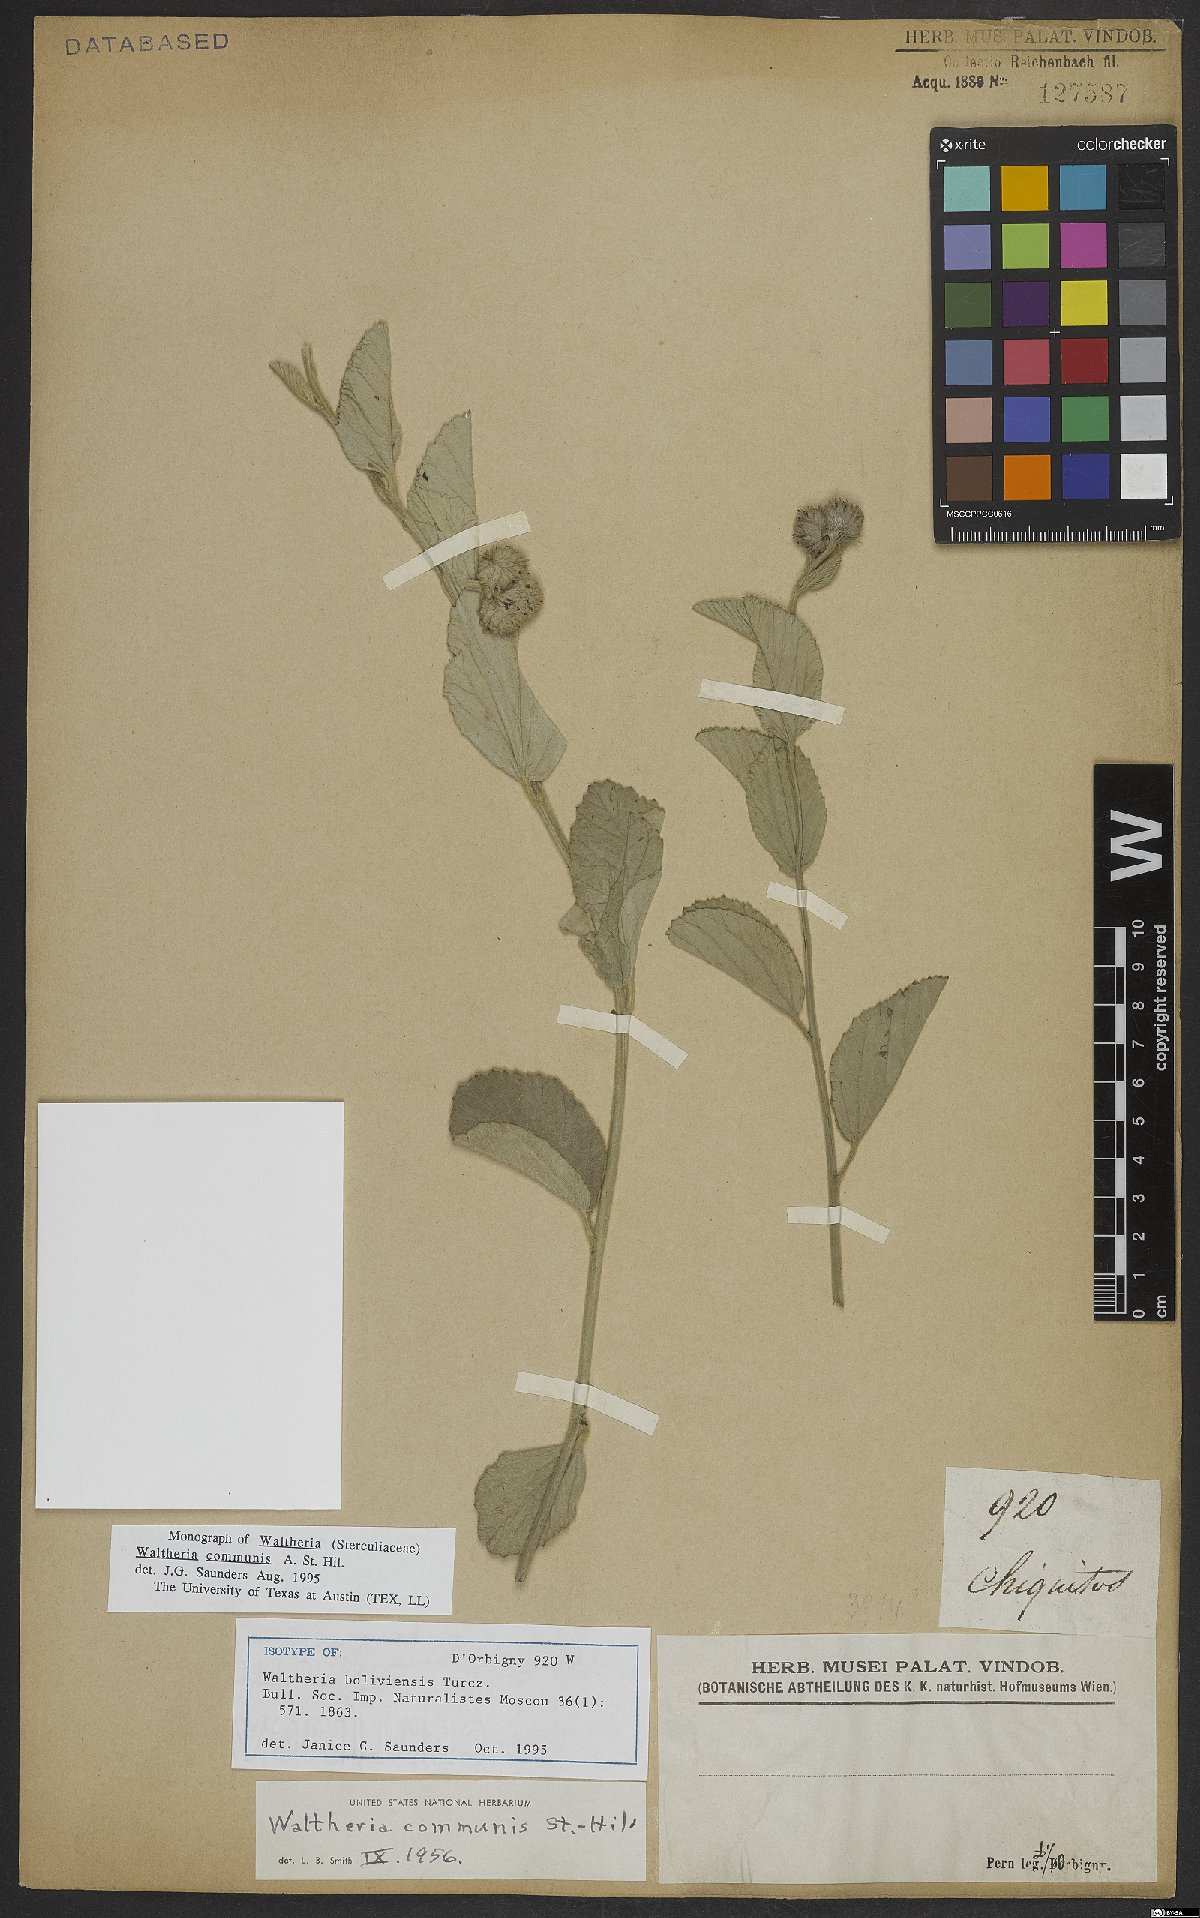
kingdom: Plantae
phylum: Tracheophyta
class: Magnoliopsida
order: Malvales
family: Malvaceae
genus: Waltheria
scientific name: Waltheria communis
